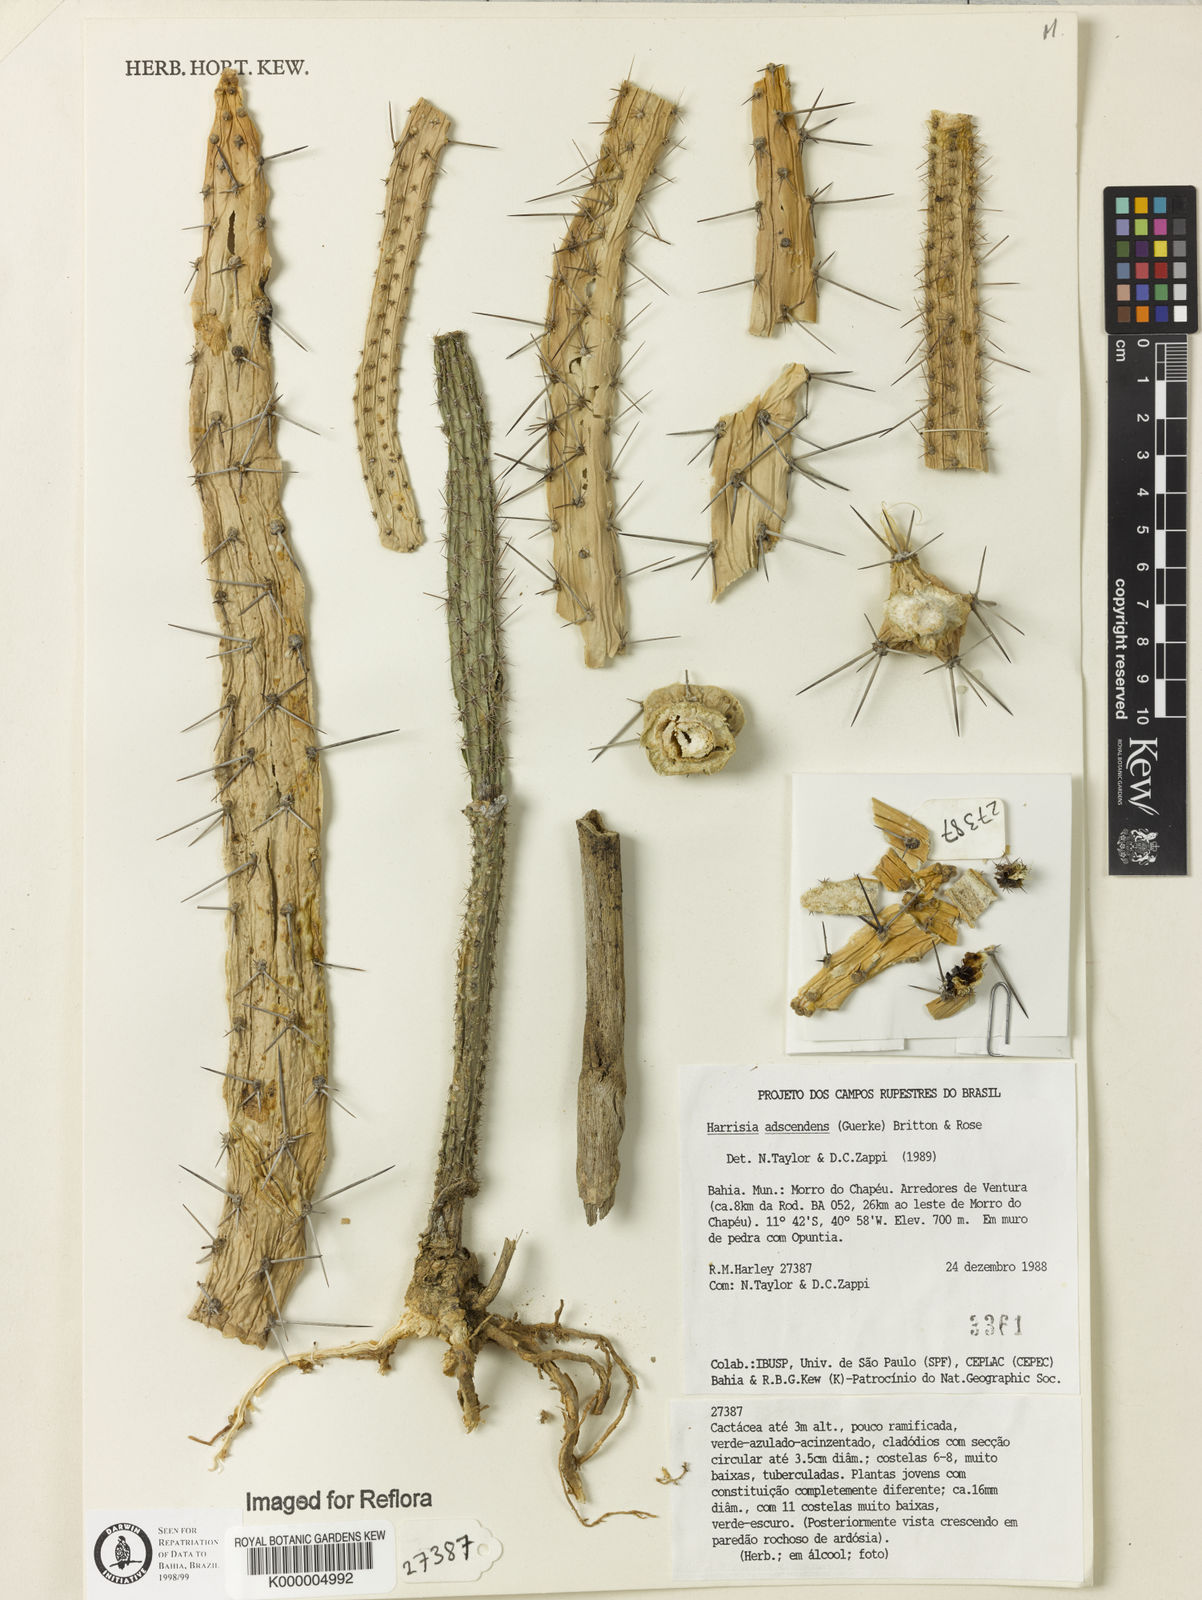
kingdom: Plantae
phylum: Tracheophyta
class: Magnoliopsida
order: Caryophyllales
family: Cactaceae
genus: Harrisia
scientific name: Harrisia adscendens
